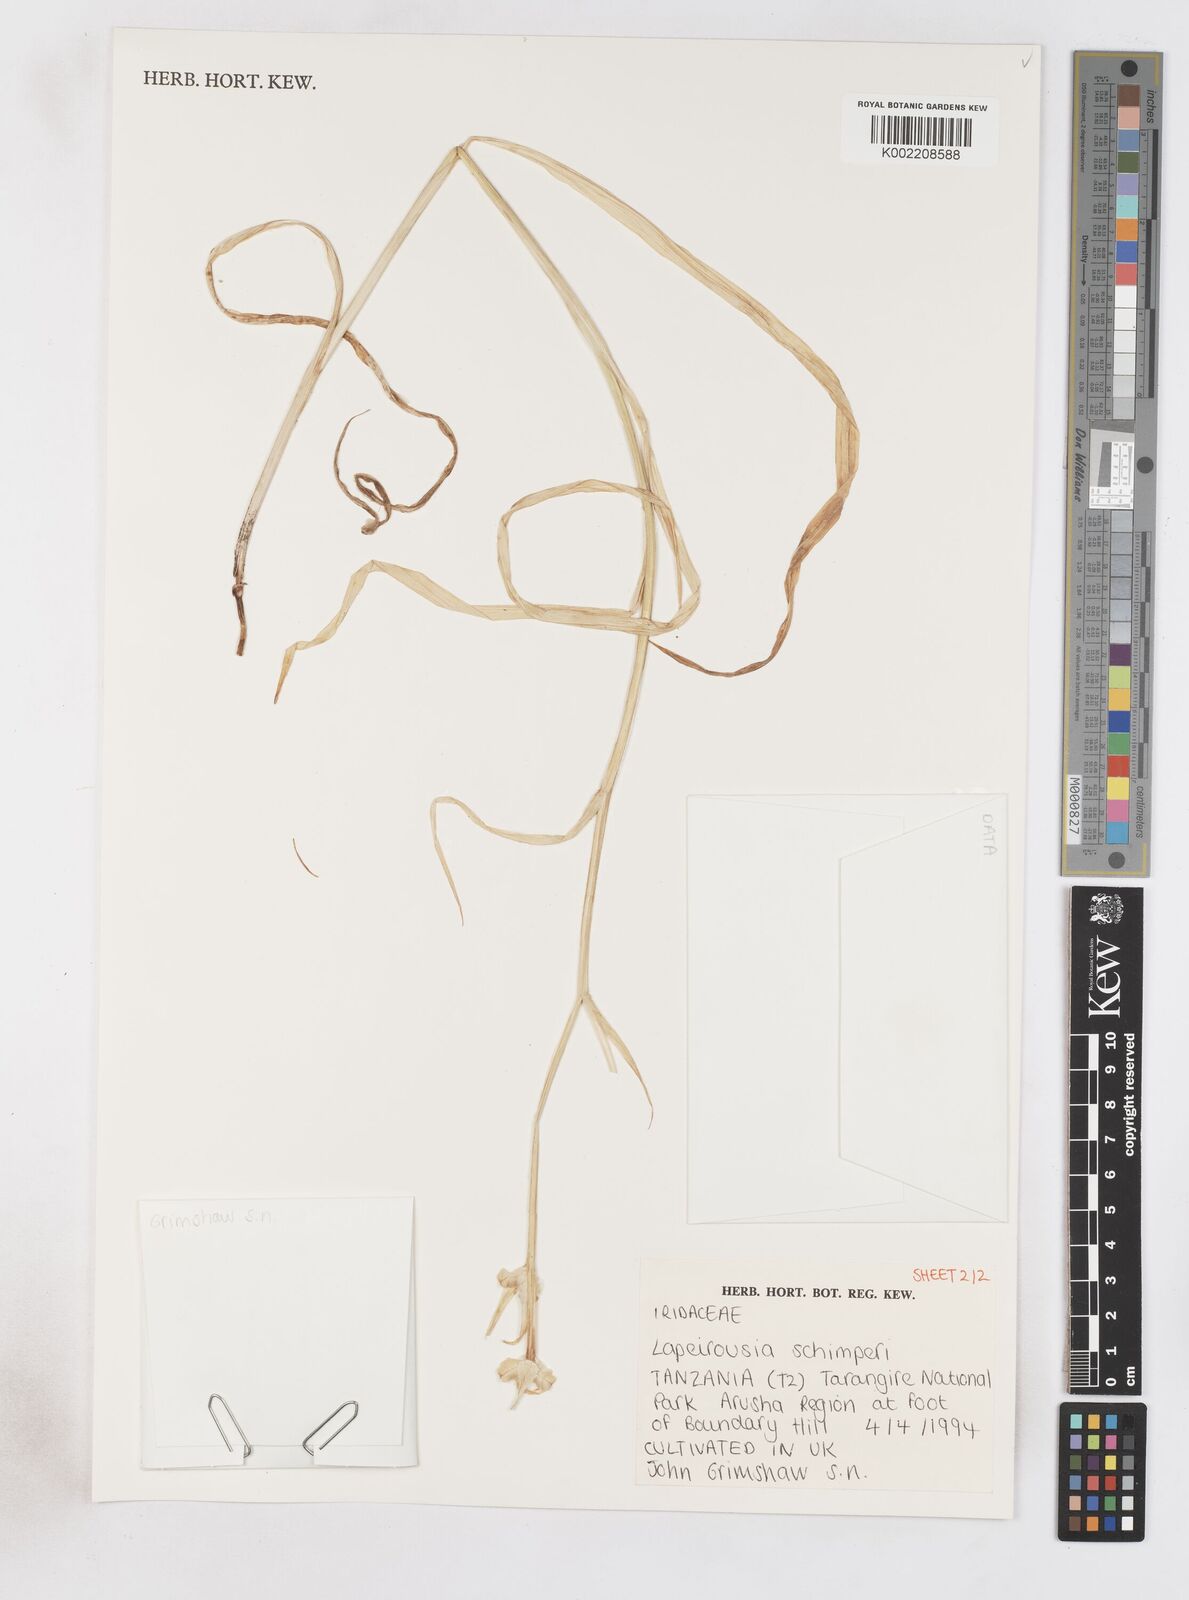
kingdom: Plantae
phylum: Tracheophyta
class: Liliopsida
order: Asparagales
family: Iridaceae
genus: Afrosolen
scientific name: Afrosolen schimperi
